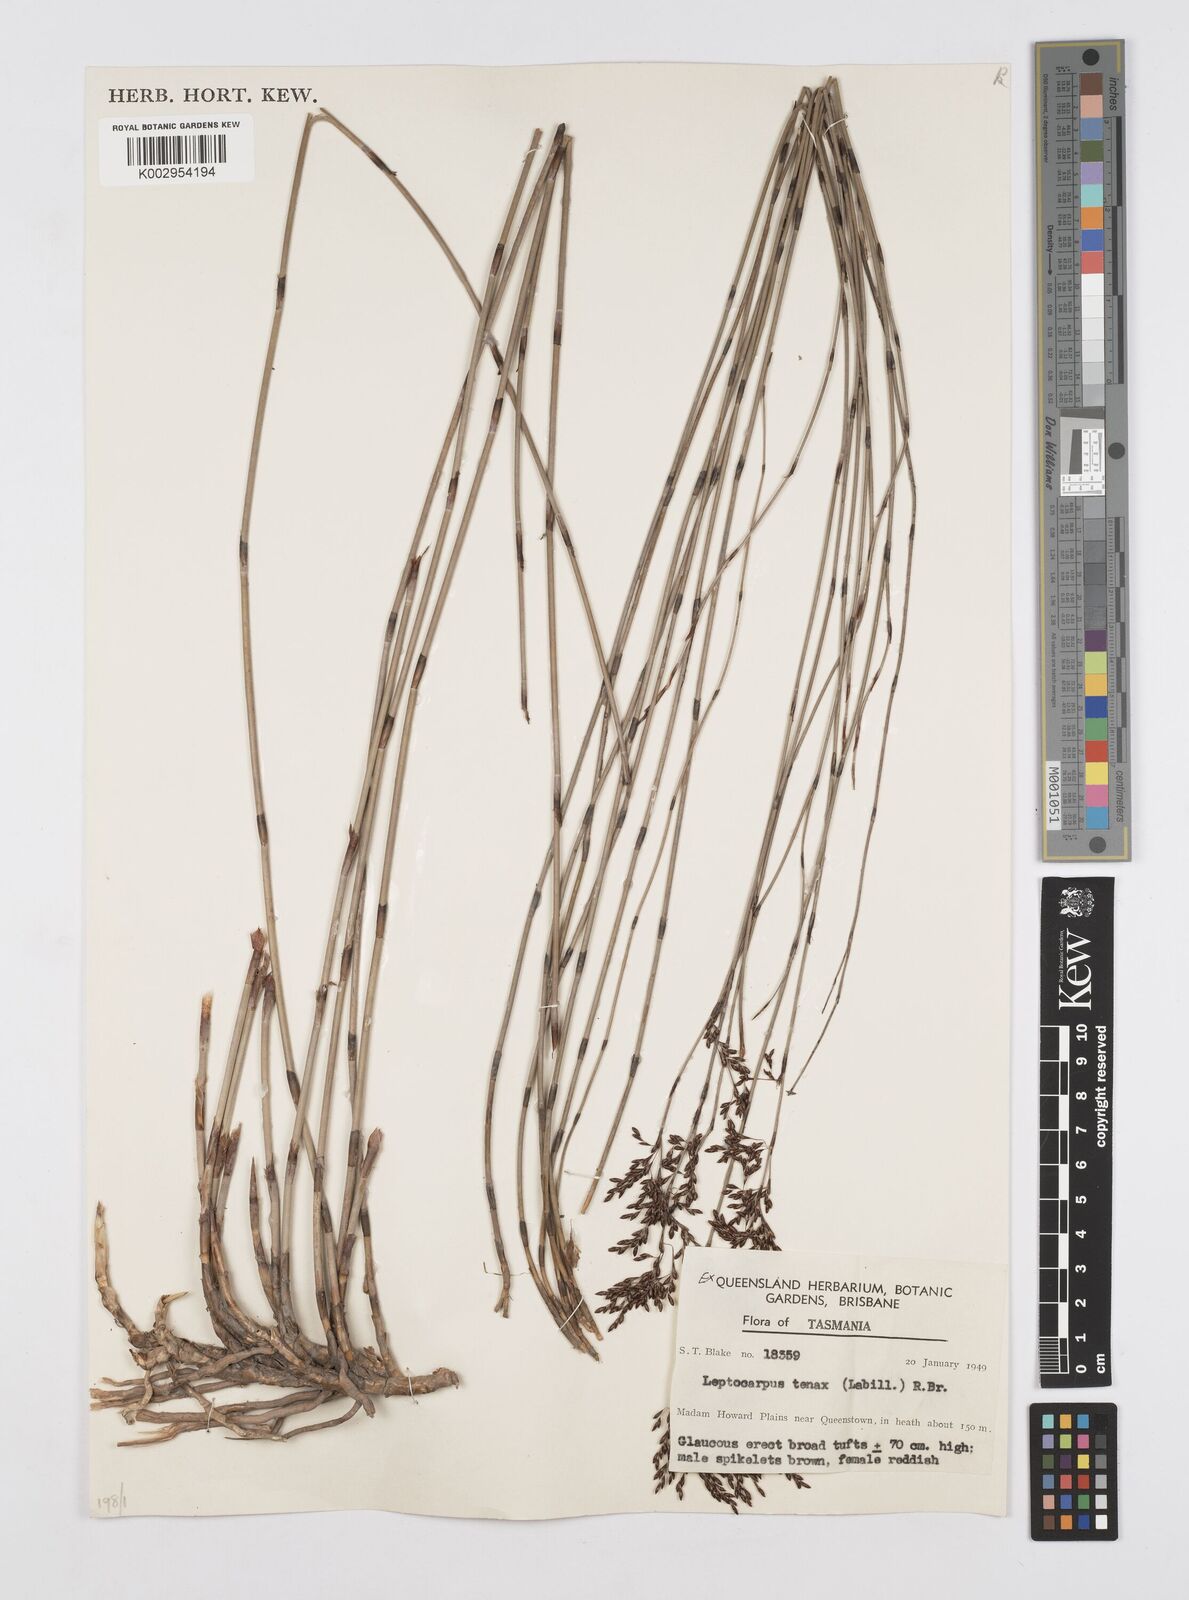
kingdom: Plantae
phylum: Tracheophyta
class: Liliopsida
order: Poales
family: Restionaceae
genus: Leptocarpus
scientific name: Leptocarpus tenax
